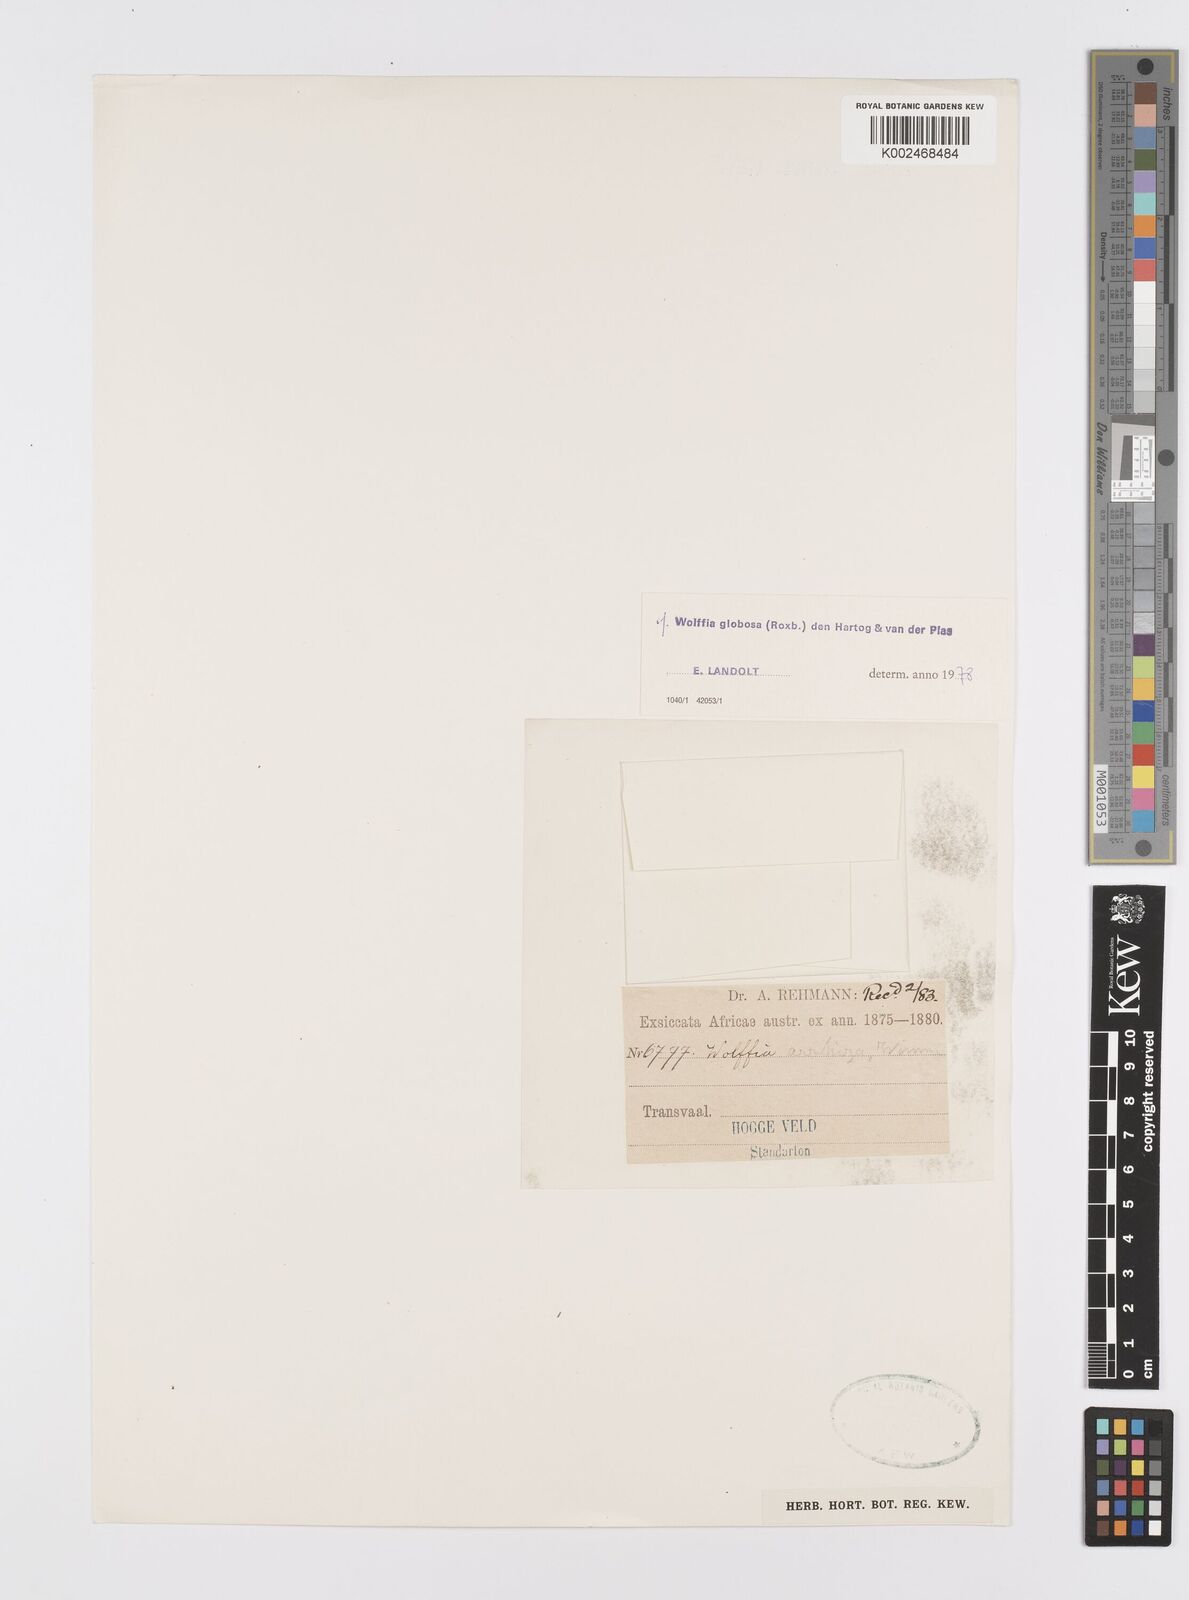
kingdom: Plantae
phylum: Tracheophyta
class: Liliopsida
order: Alismatales
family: Araceae
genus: Wolffia
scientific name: Wolffia globosa
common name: Asian watermeal
